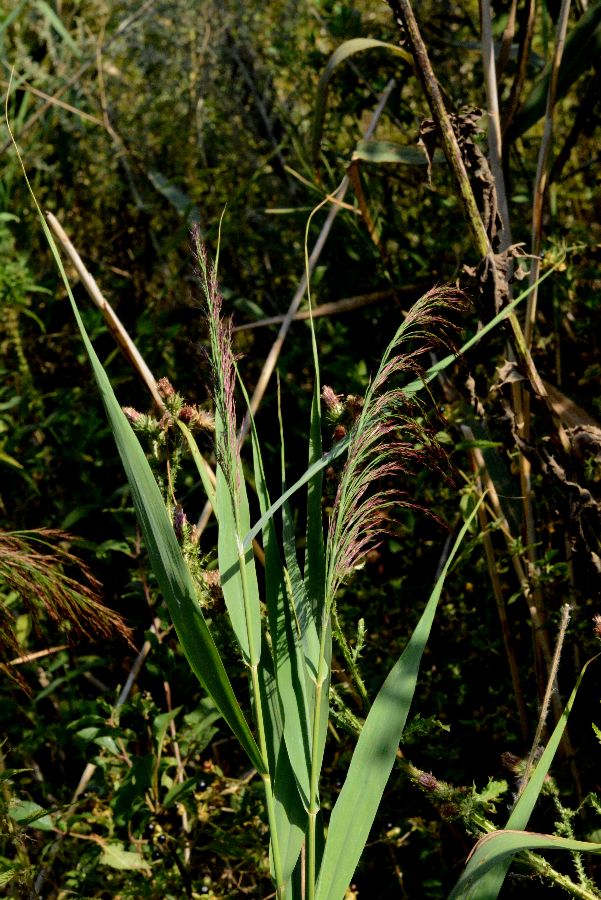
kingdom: Plantae
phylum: Tracheophyta
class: Liliopsida
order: Poales
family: Poaceae
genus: Phragmites
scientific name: Phragmites australis
